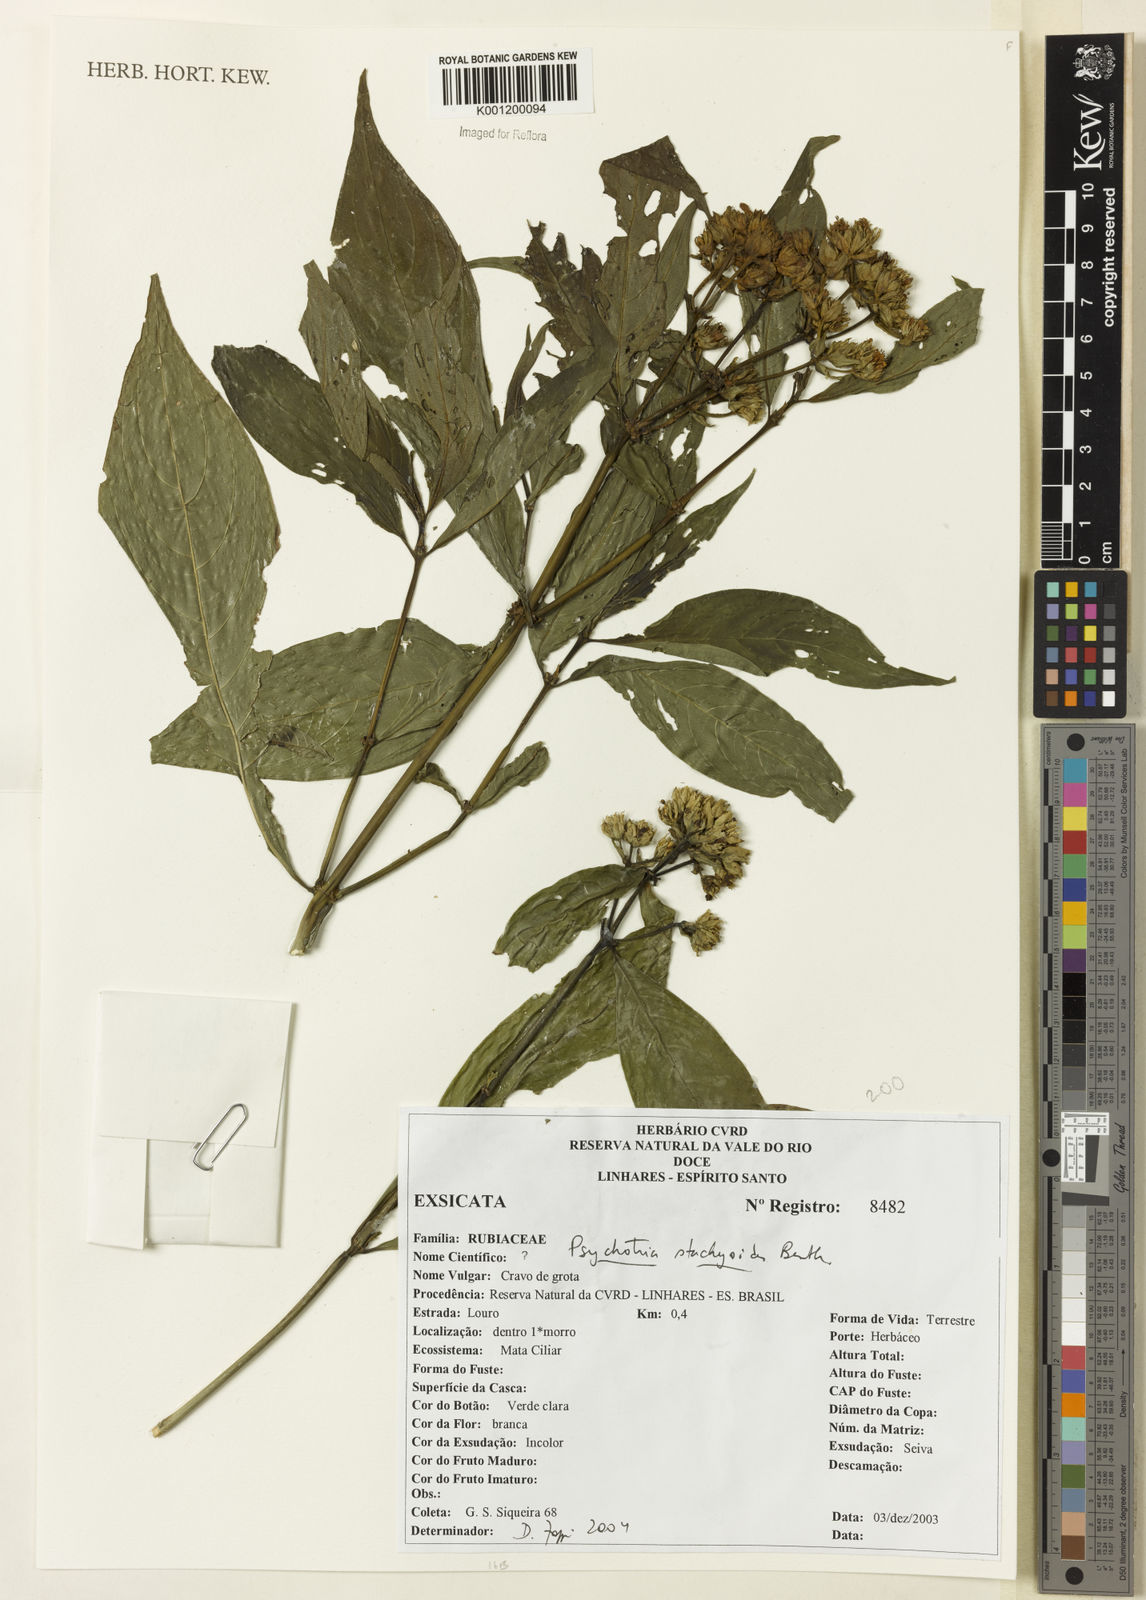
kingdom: Plantae
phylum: Tracheophyta
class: Magnoliopsida
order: Gentianales
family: Rubiaceae
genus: Psychotria
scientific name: Psychotria stachyoides
